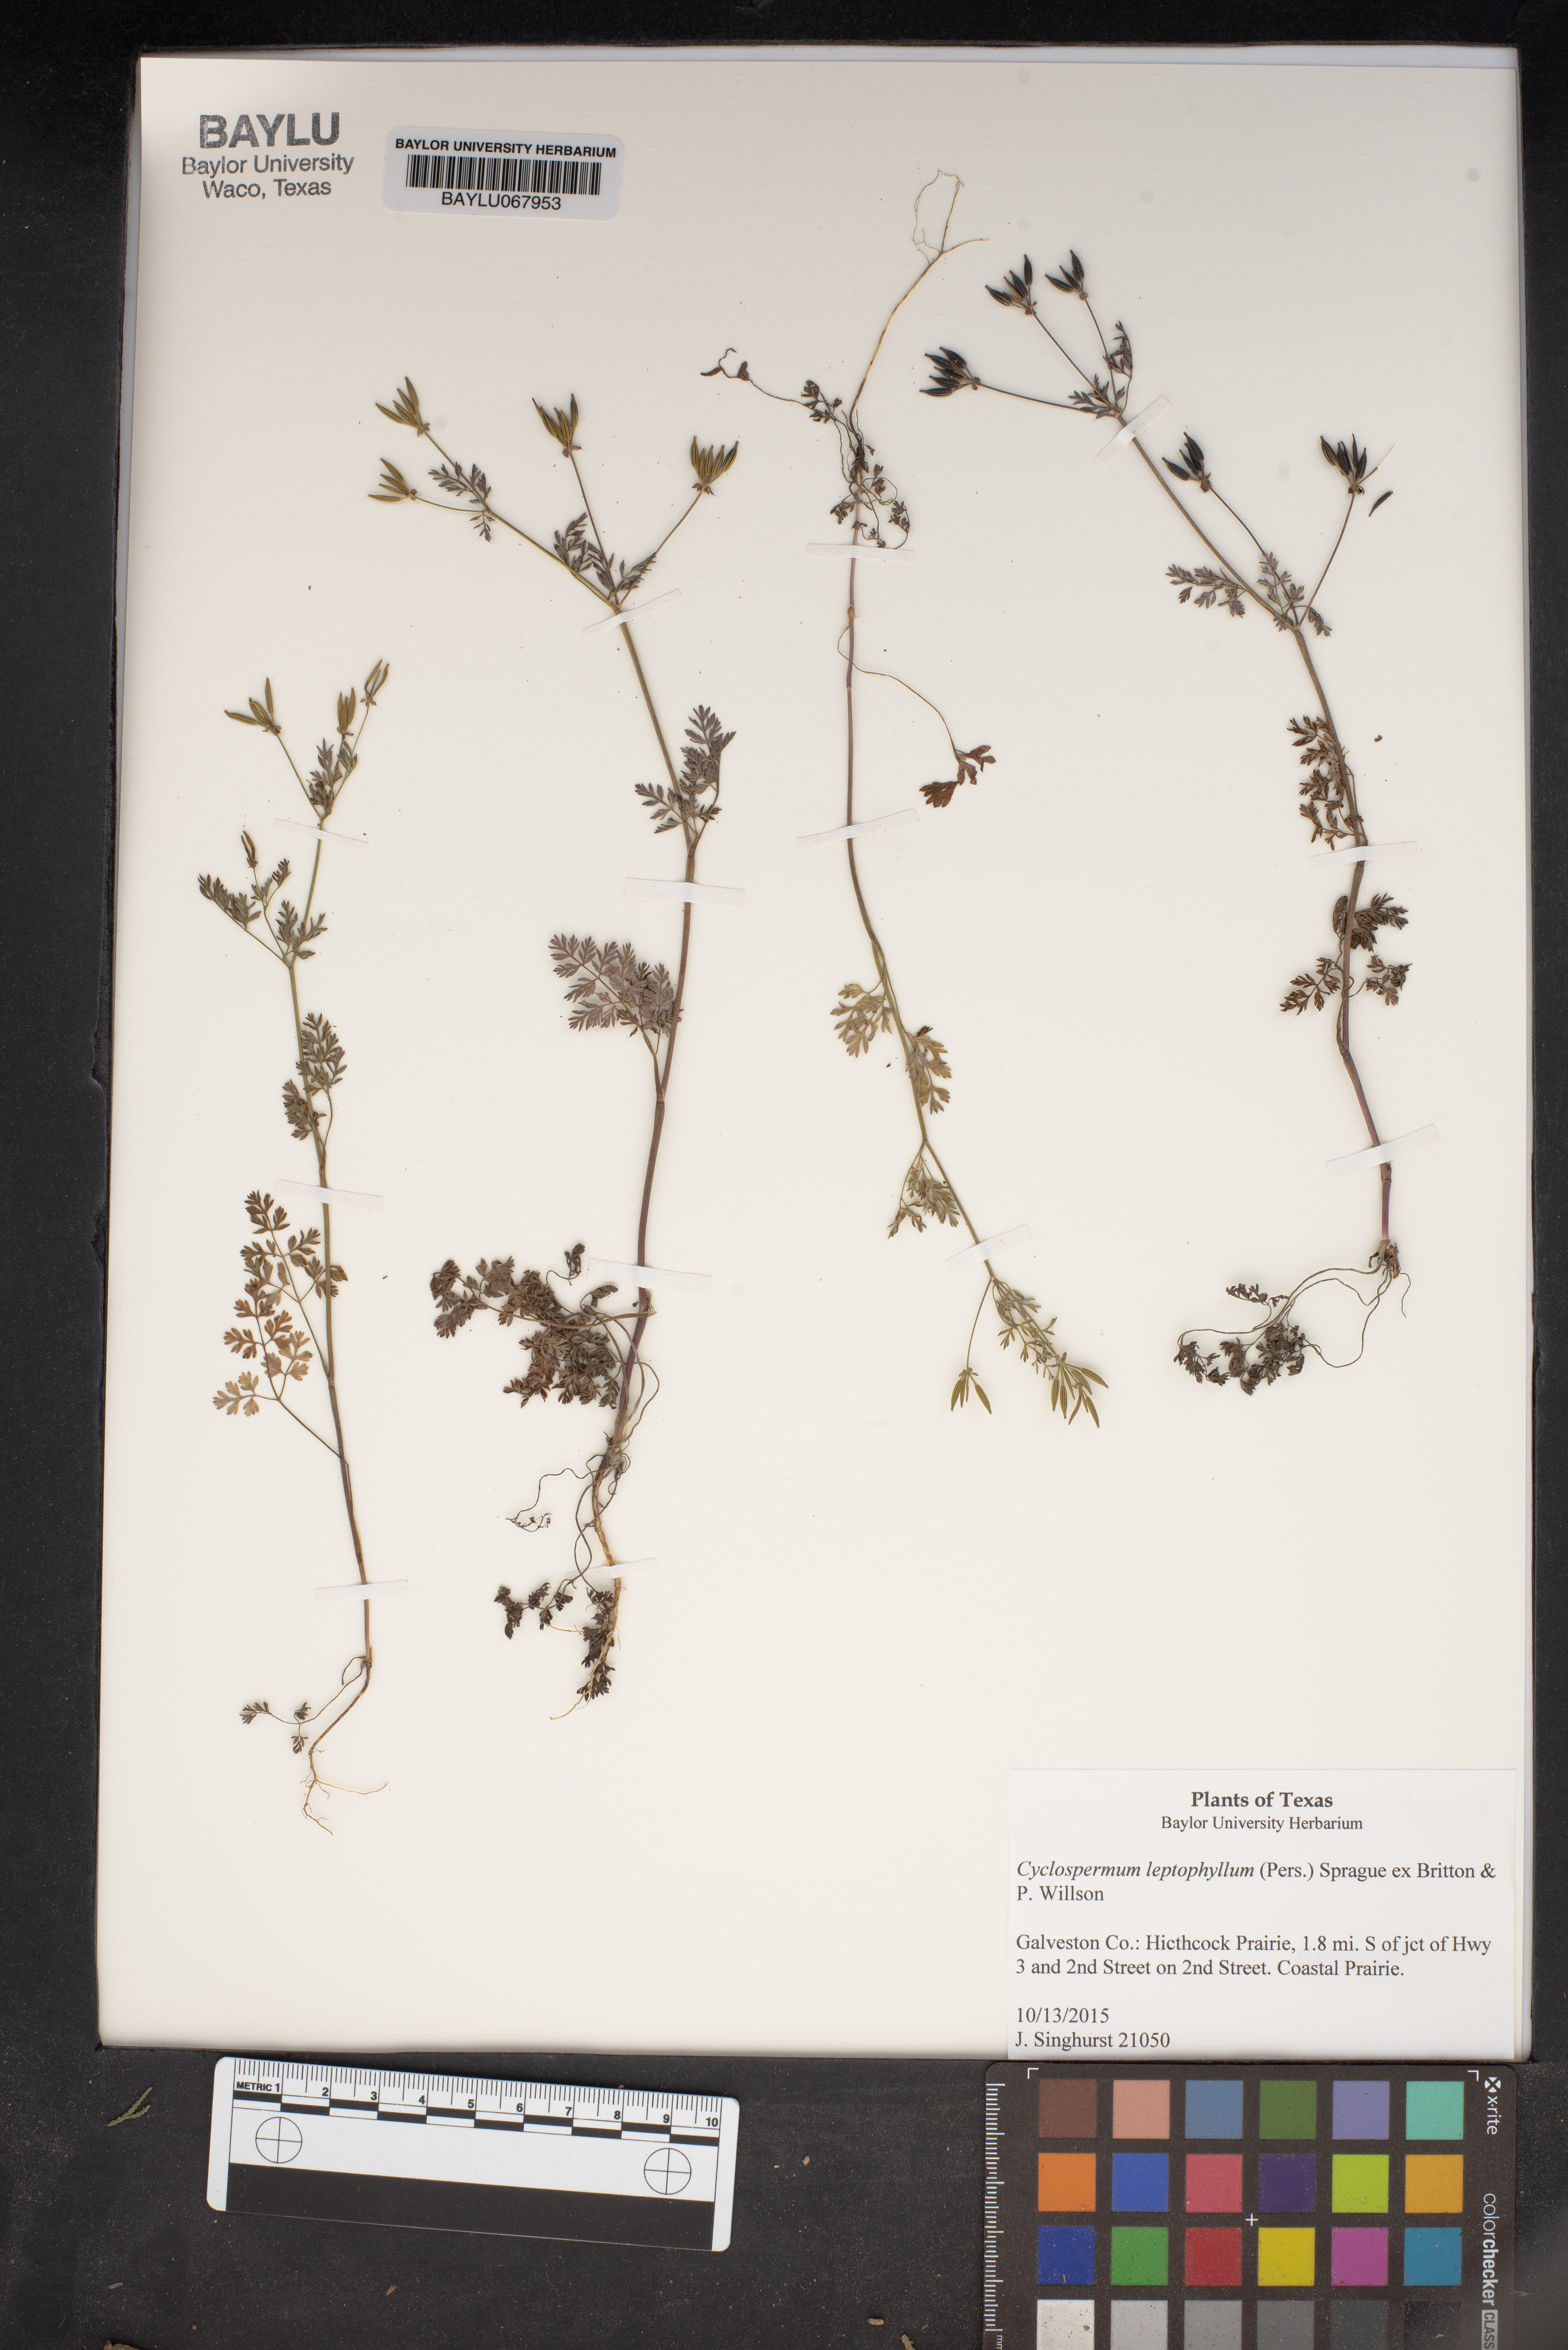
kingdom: Plantae
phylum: Tracheophyta
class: Magnoliopsida
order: Apiales
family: Apiaceae
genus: Cyclospermum
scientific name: Cyclospermum leptophyllum
